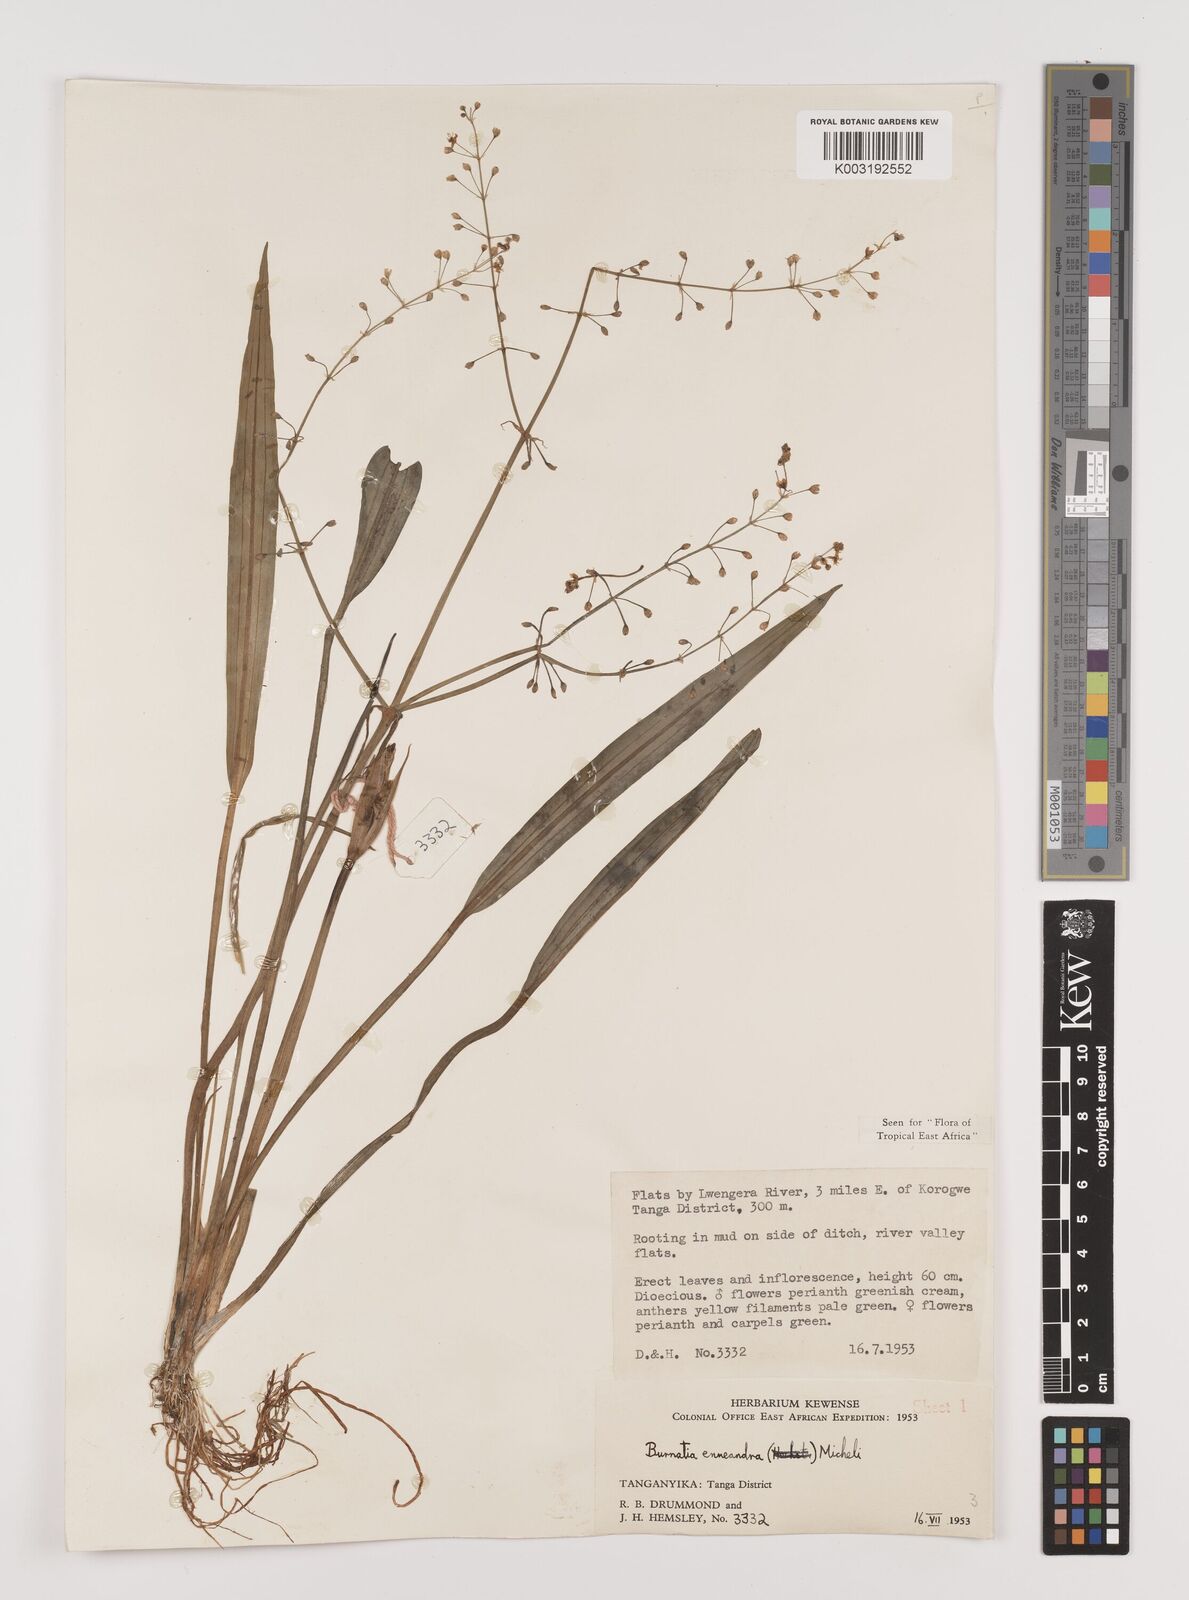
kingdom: Plantae
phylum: Tracheophyta
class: Liliopsida
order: Alismatales
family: Alismataceae
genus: Burnatia
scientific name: Burnatia enneandra
